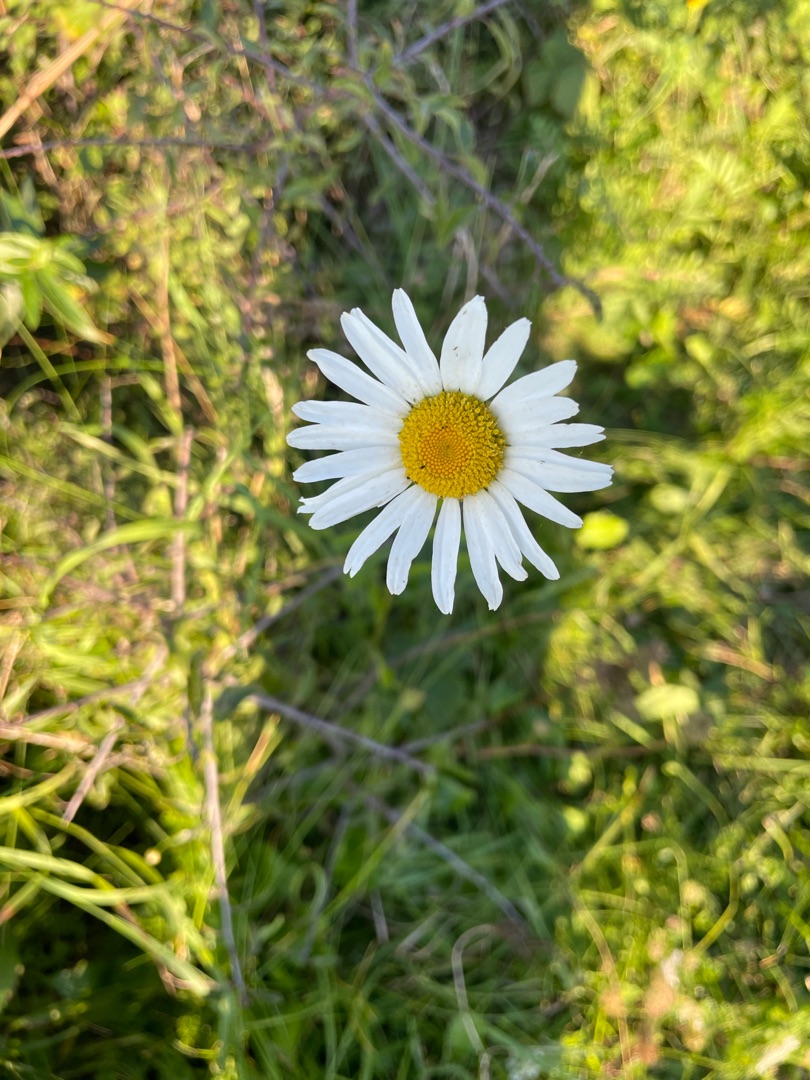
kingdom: Plantae
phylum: Tracheophyta
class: Magnoliopsida
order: Asterales
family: Asteraceae
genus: Leucanthemum
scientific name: Leucanthemum vulgare
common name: Hvid okseøje
